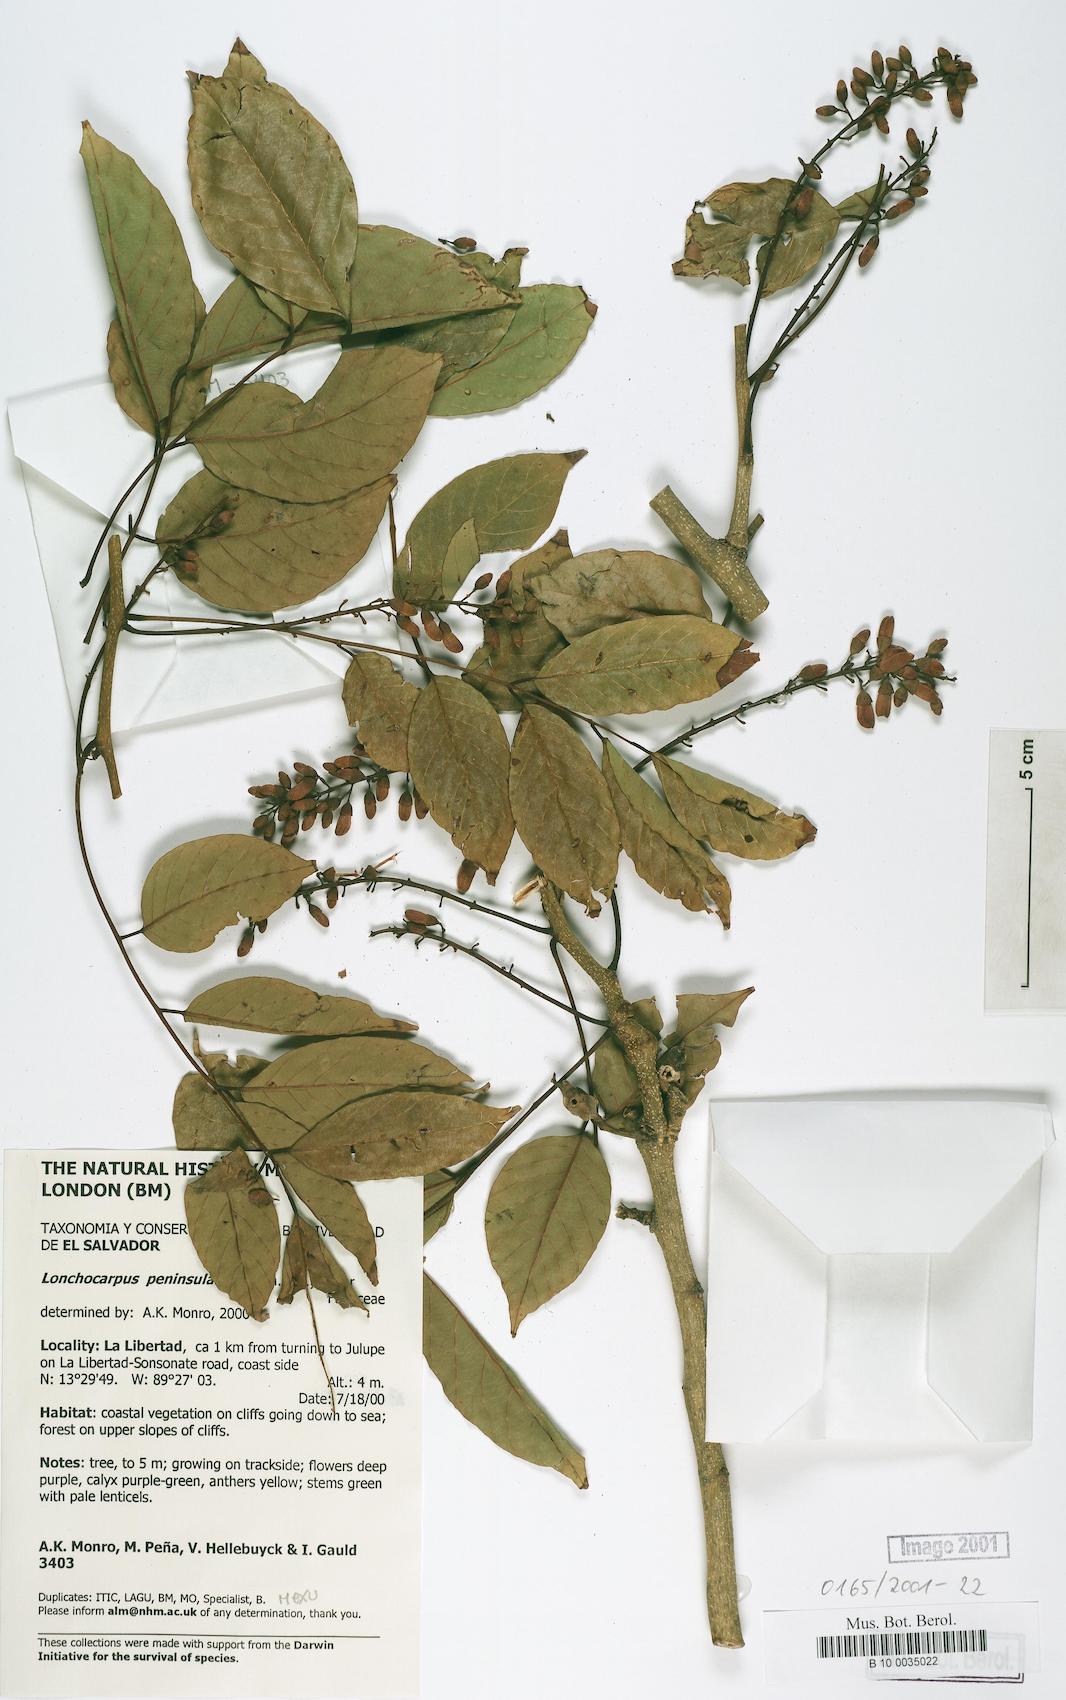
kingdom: Plantae
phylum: Tracheophyta
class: Magnoliopsida
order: Fabales
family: Fabaceae
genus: Lonchocarpus
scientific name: Lonchocarpus acuminatus
